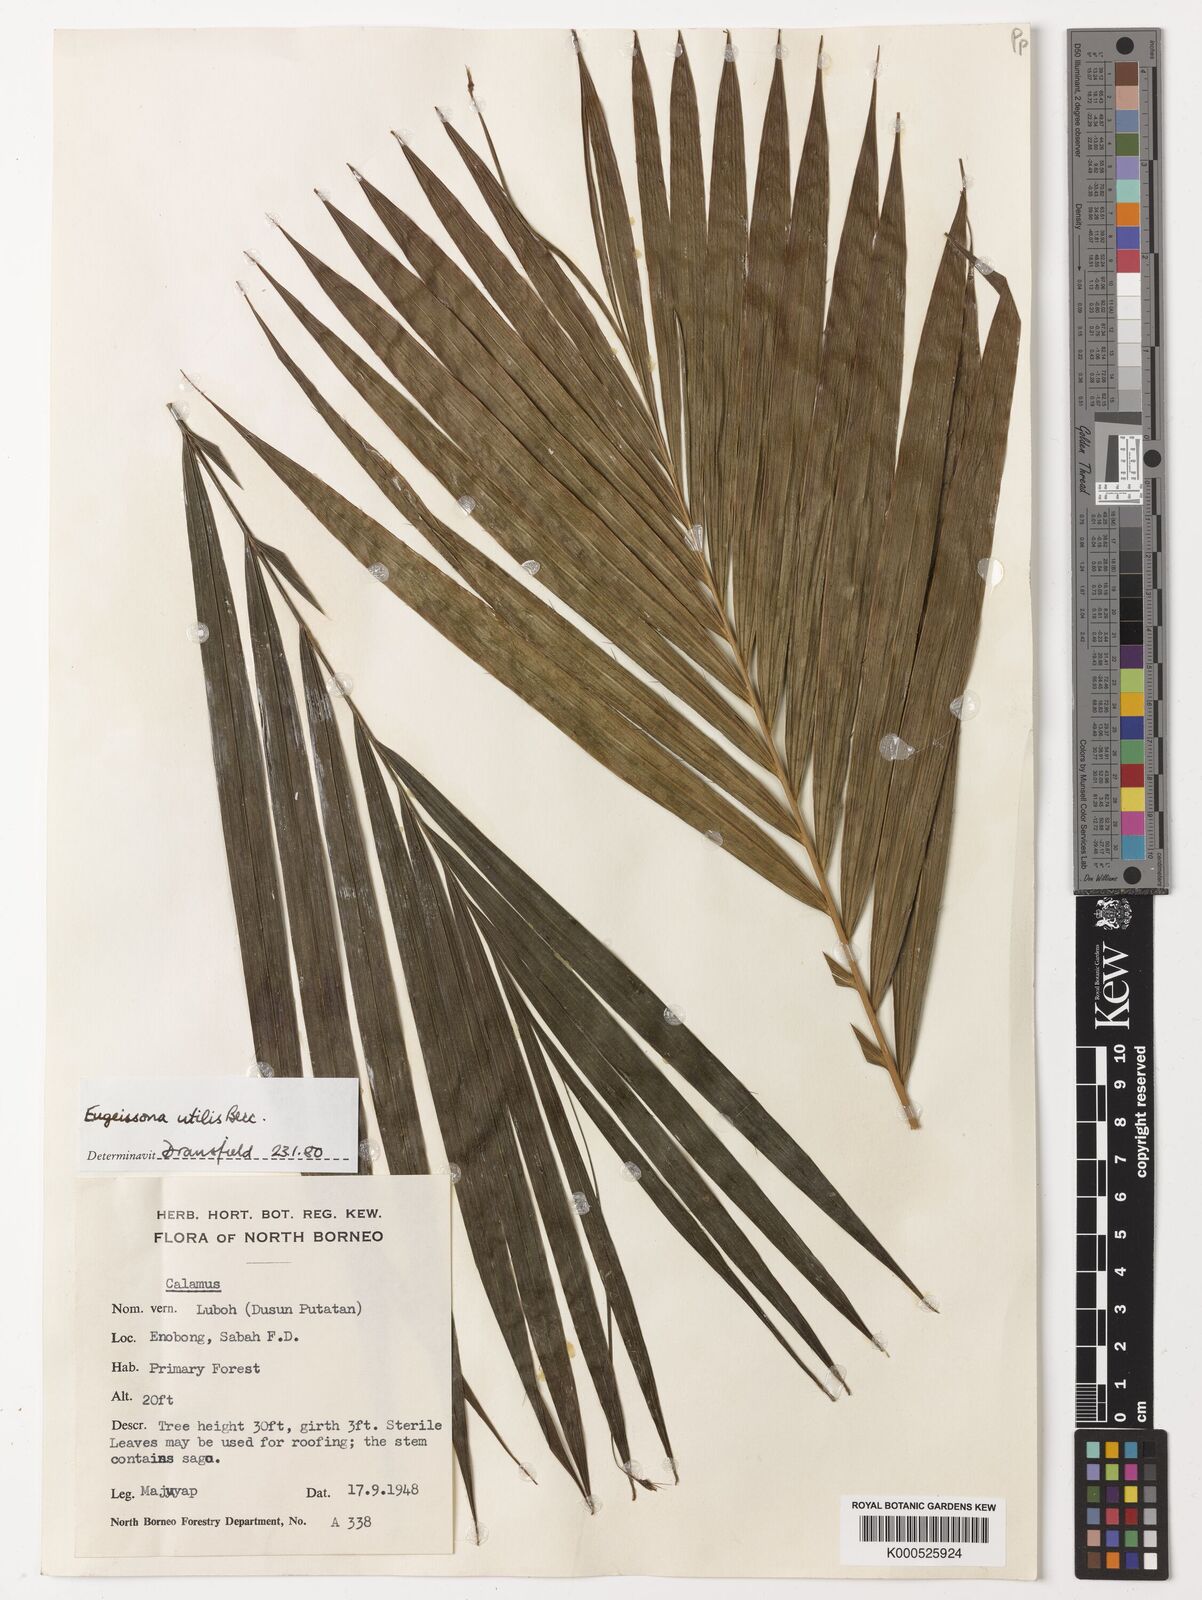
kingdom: Plantae
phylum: Tracheophyta
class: Liliopsida
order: Arecales
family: Arecaceae
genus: Eugeissona
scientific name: Eugeissona utilis
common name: Wild bornean sago palm
